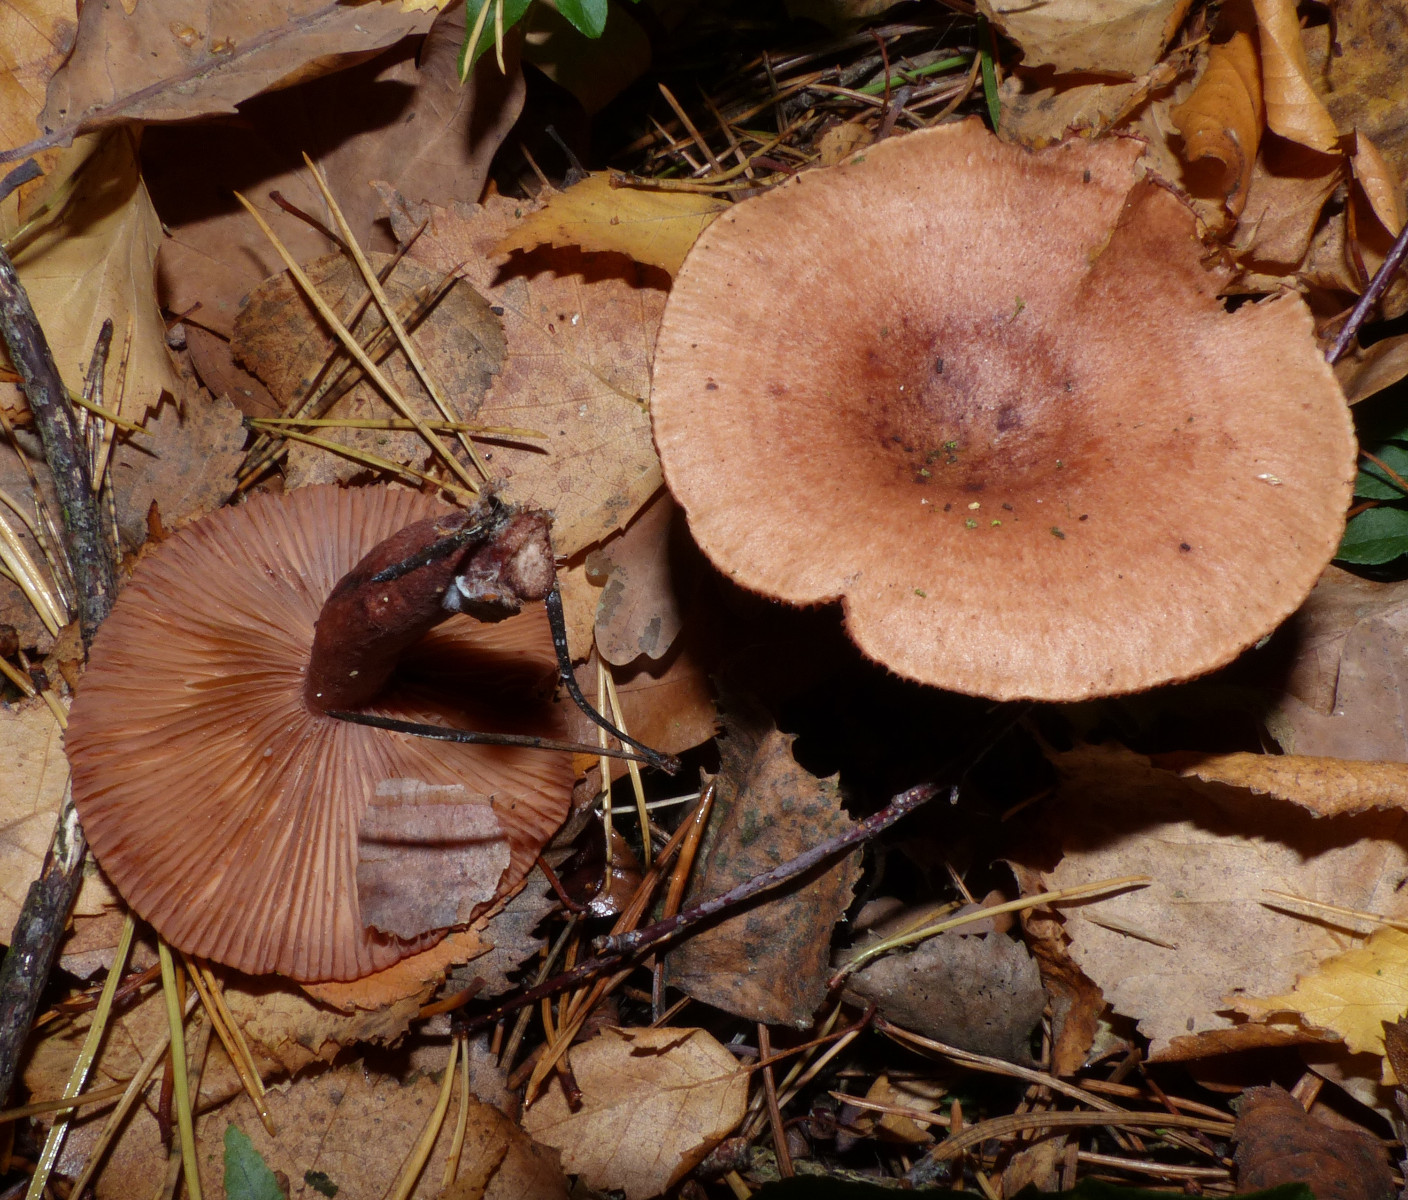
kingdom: Fungi
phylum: Basidiomycota
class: Agaricomycetes
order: Russulales
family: Russulaceae
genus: Lactarius
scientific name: Lactarius quietus
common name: ege-mælkehat
